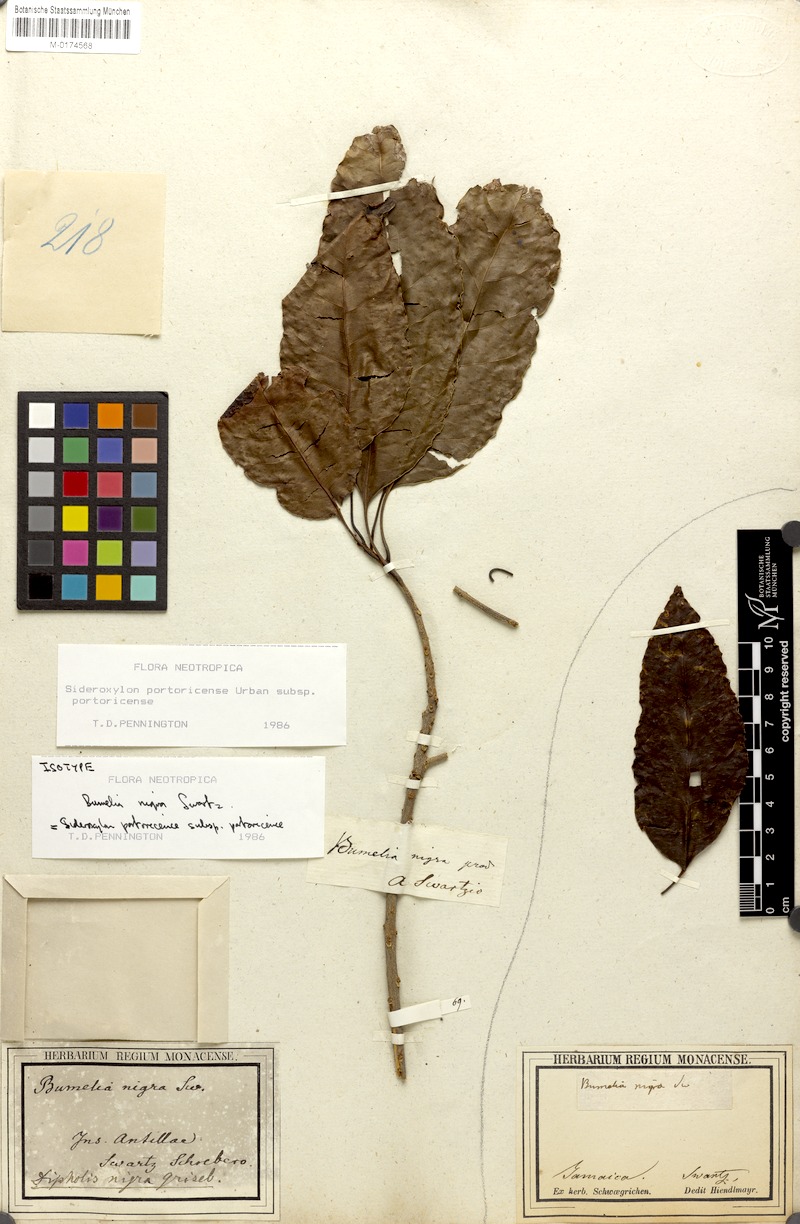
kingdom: Plantae
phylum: Tracheophyta
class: Magnoliopsida
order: Ericales
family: Sapotaceae
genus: Sideroxylon
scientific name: Sideroxylon portoricense
